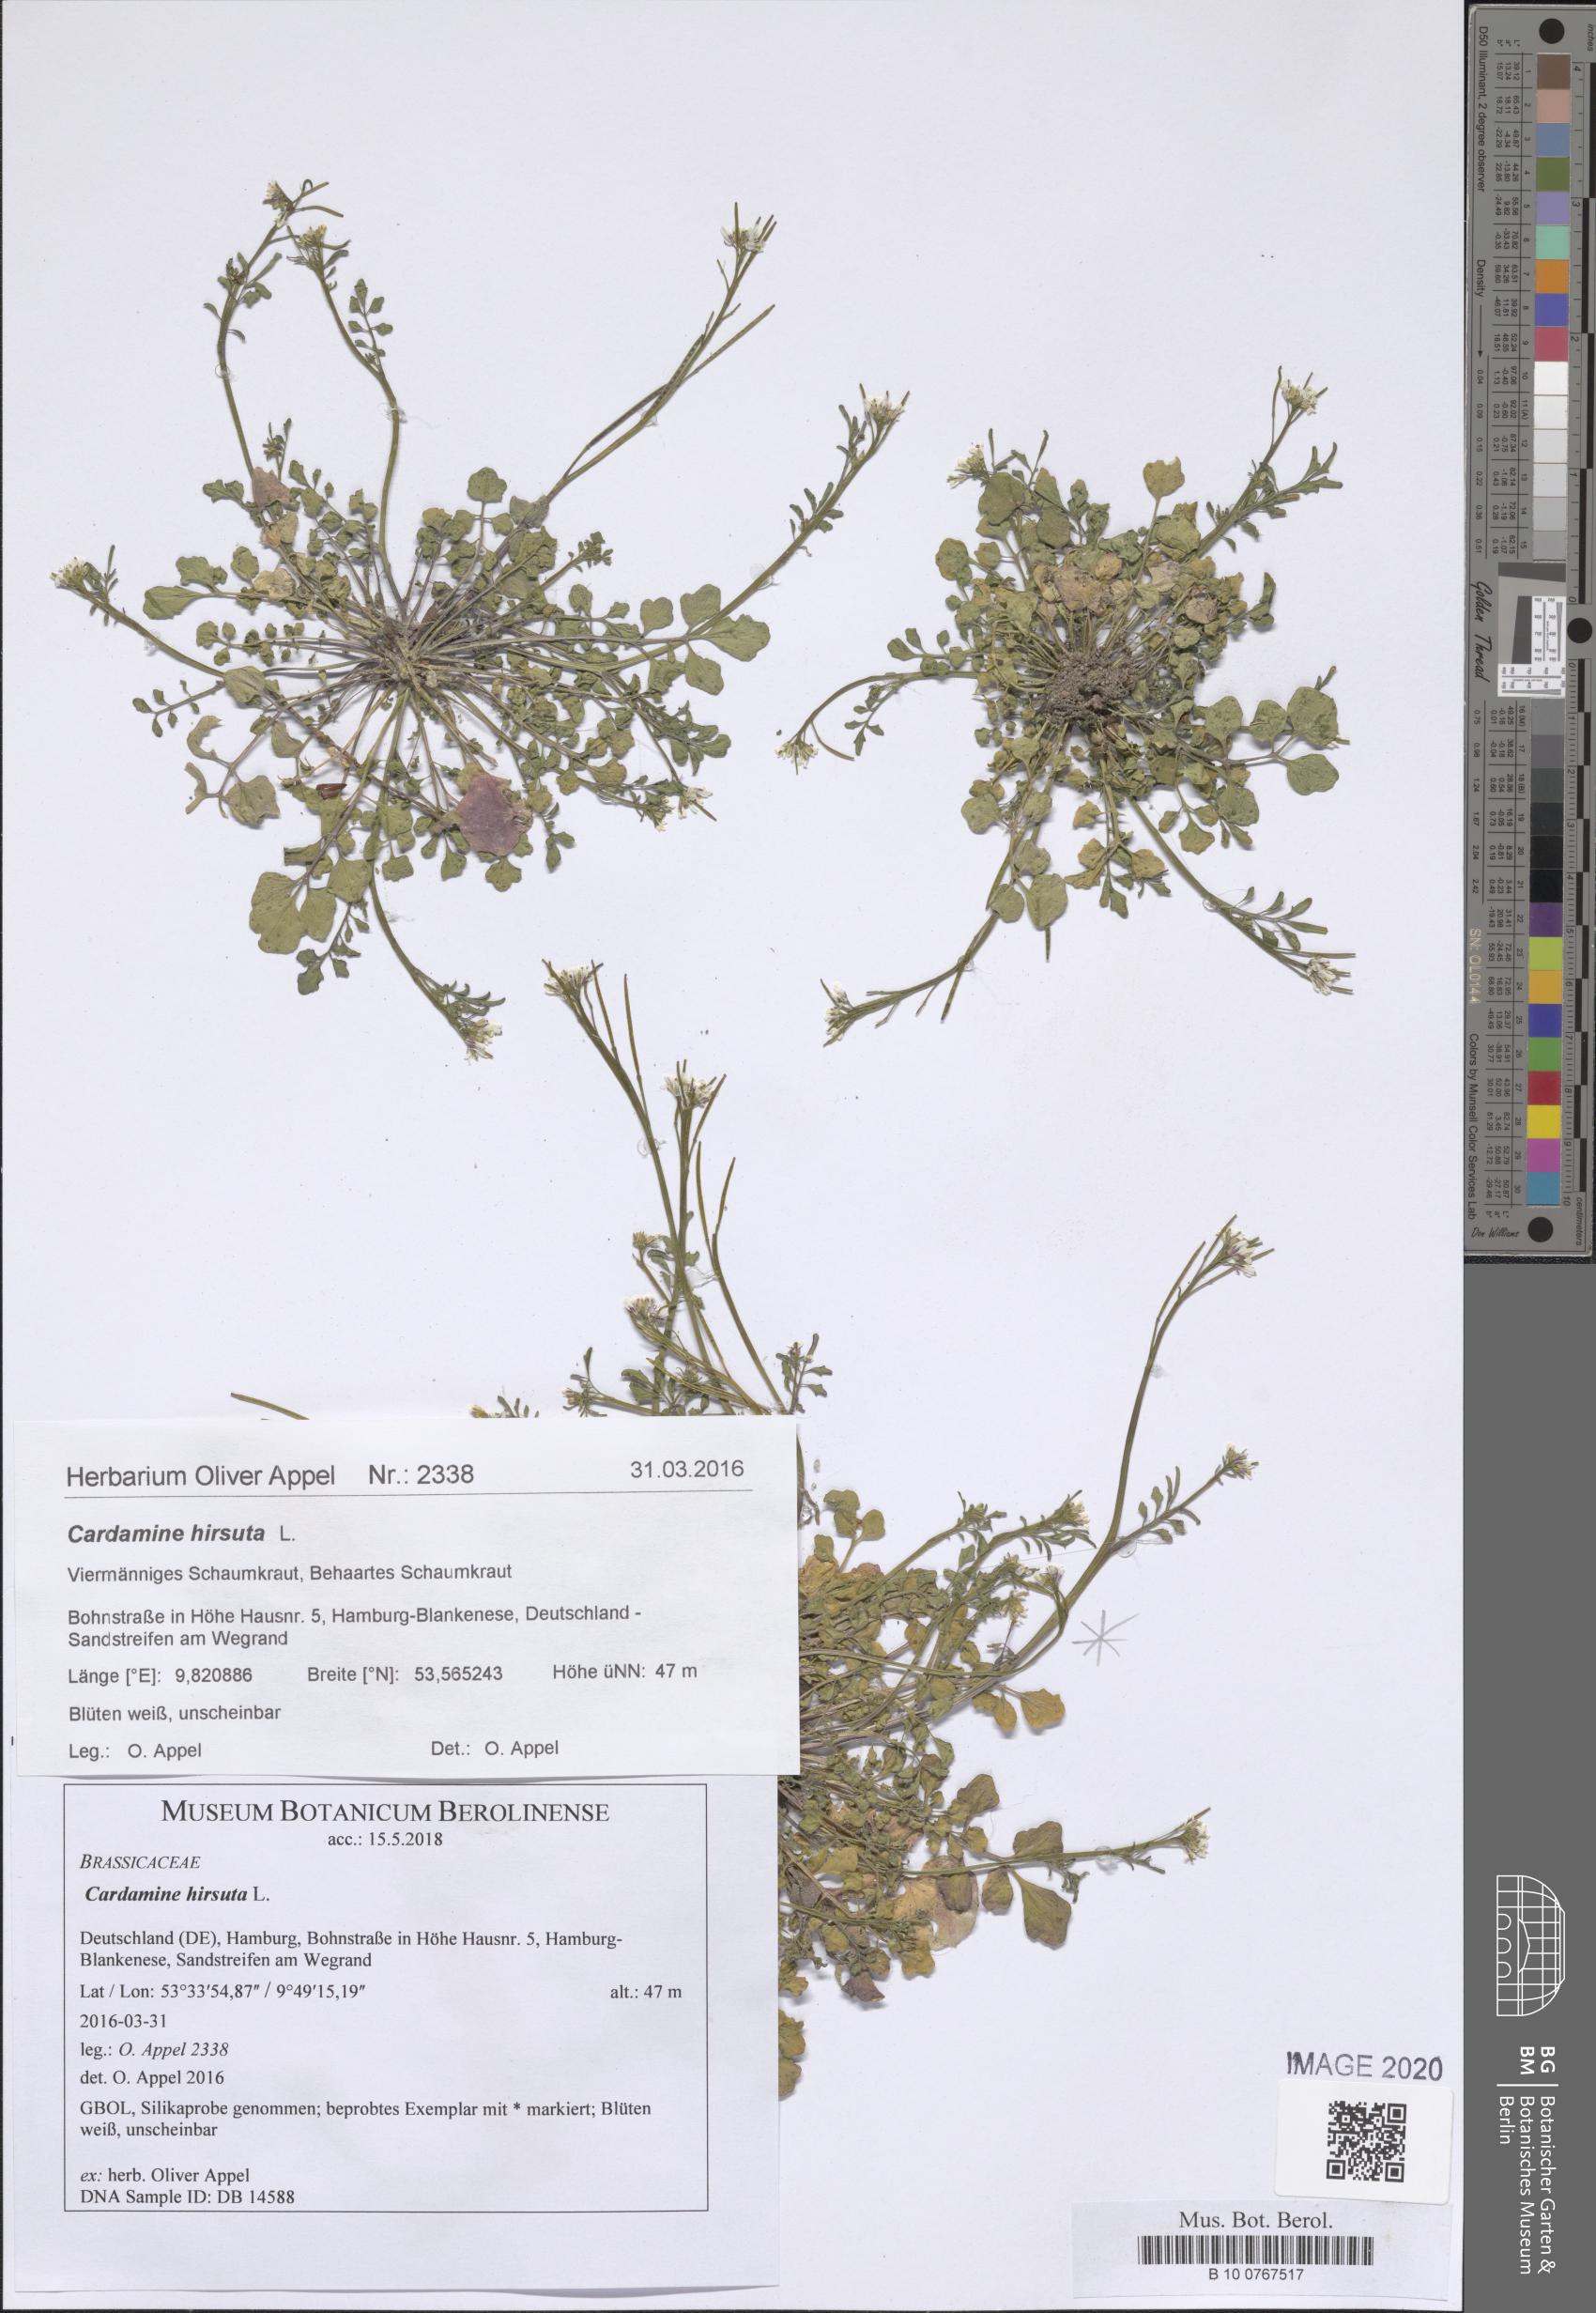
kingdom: Plantae
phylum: Tracheophyta
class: Magnoliopsida
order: Brassicales
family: Brassicaceae
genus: Cardamine
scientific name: Cardamine hirsuta
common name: Hairy bittercress
